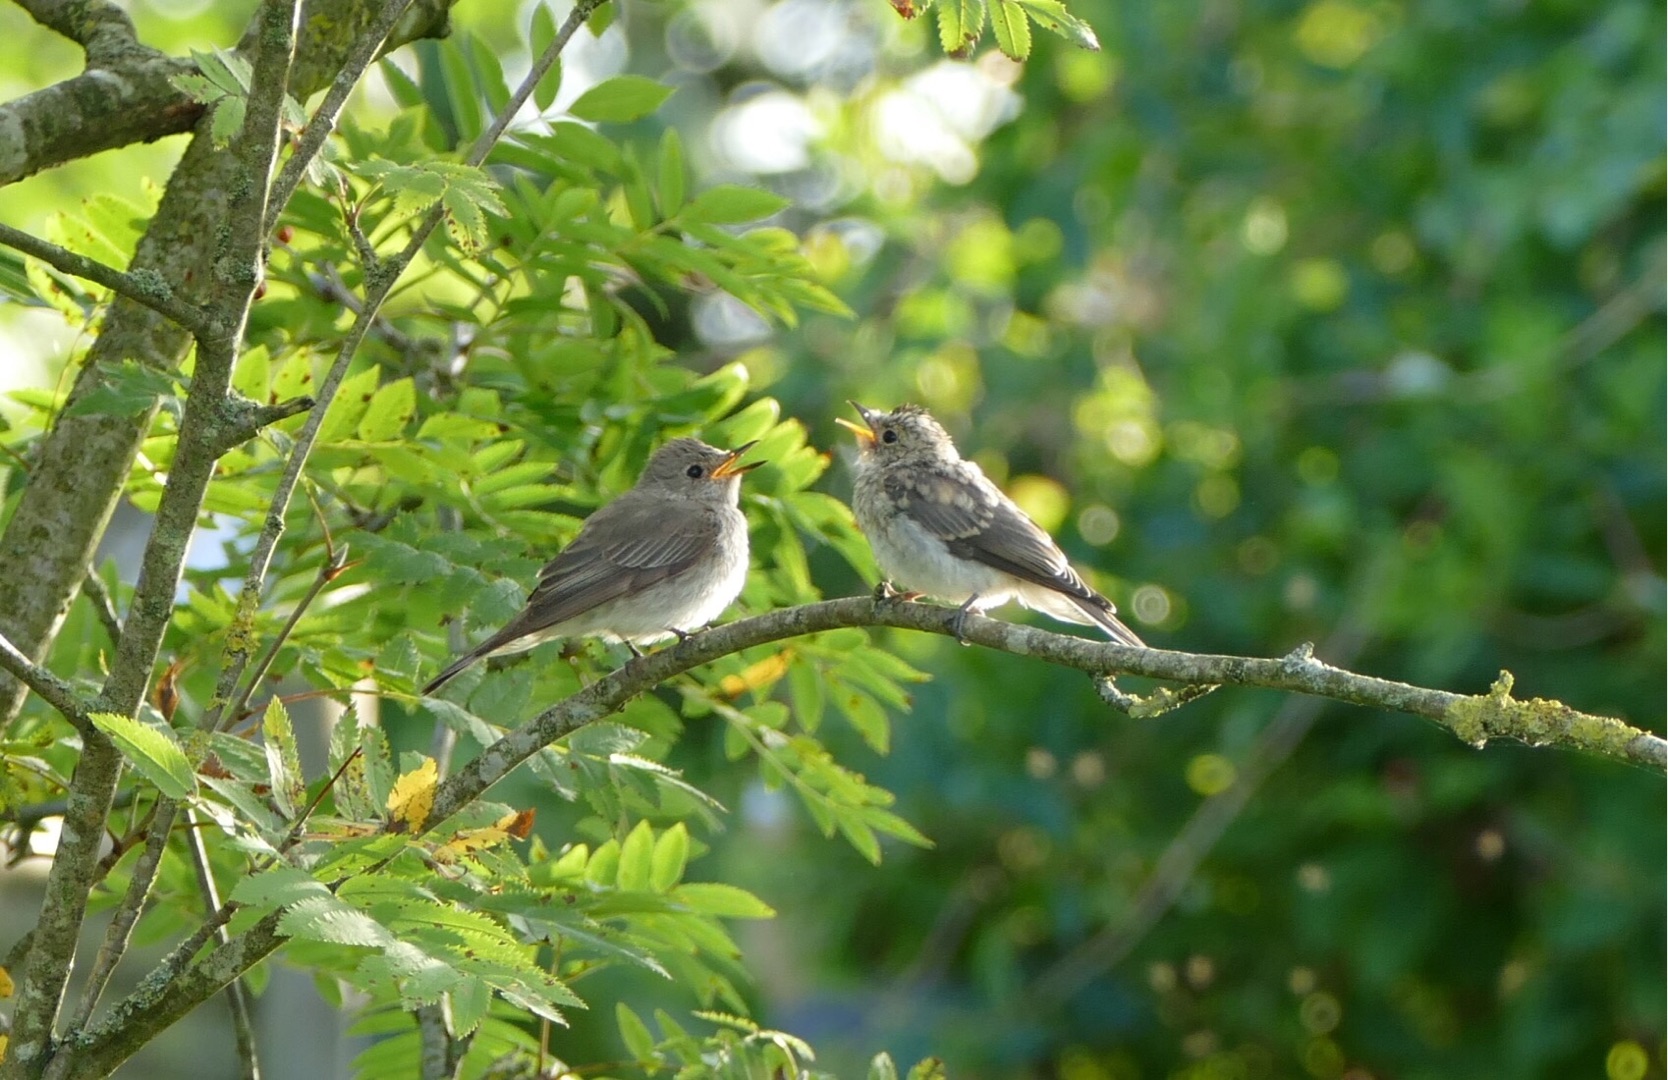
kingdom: Animalia
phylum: Chordata
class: Aves
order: Passeriformes
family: Muscicapidae
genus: Muscicapa
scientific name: Muscicapa striata
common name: Grå fluesnapper
